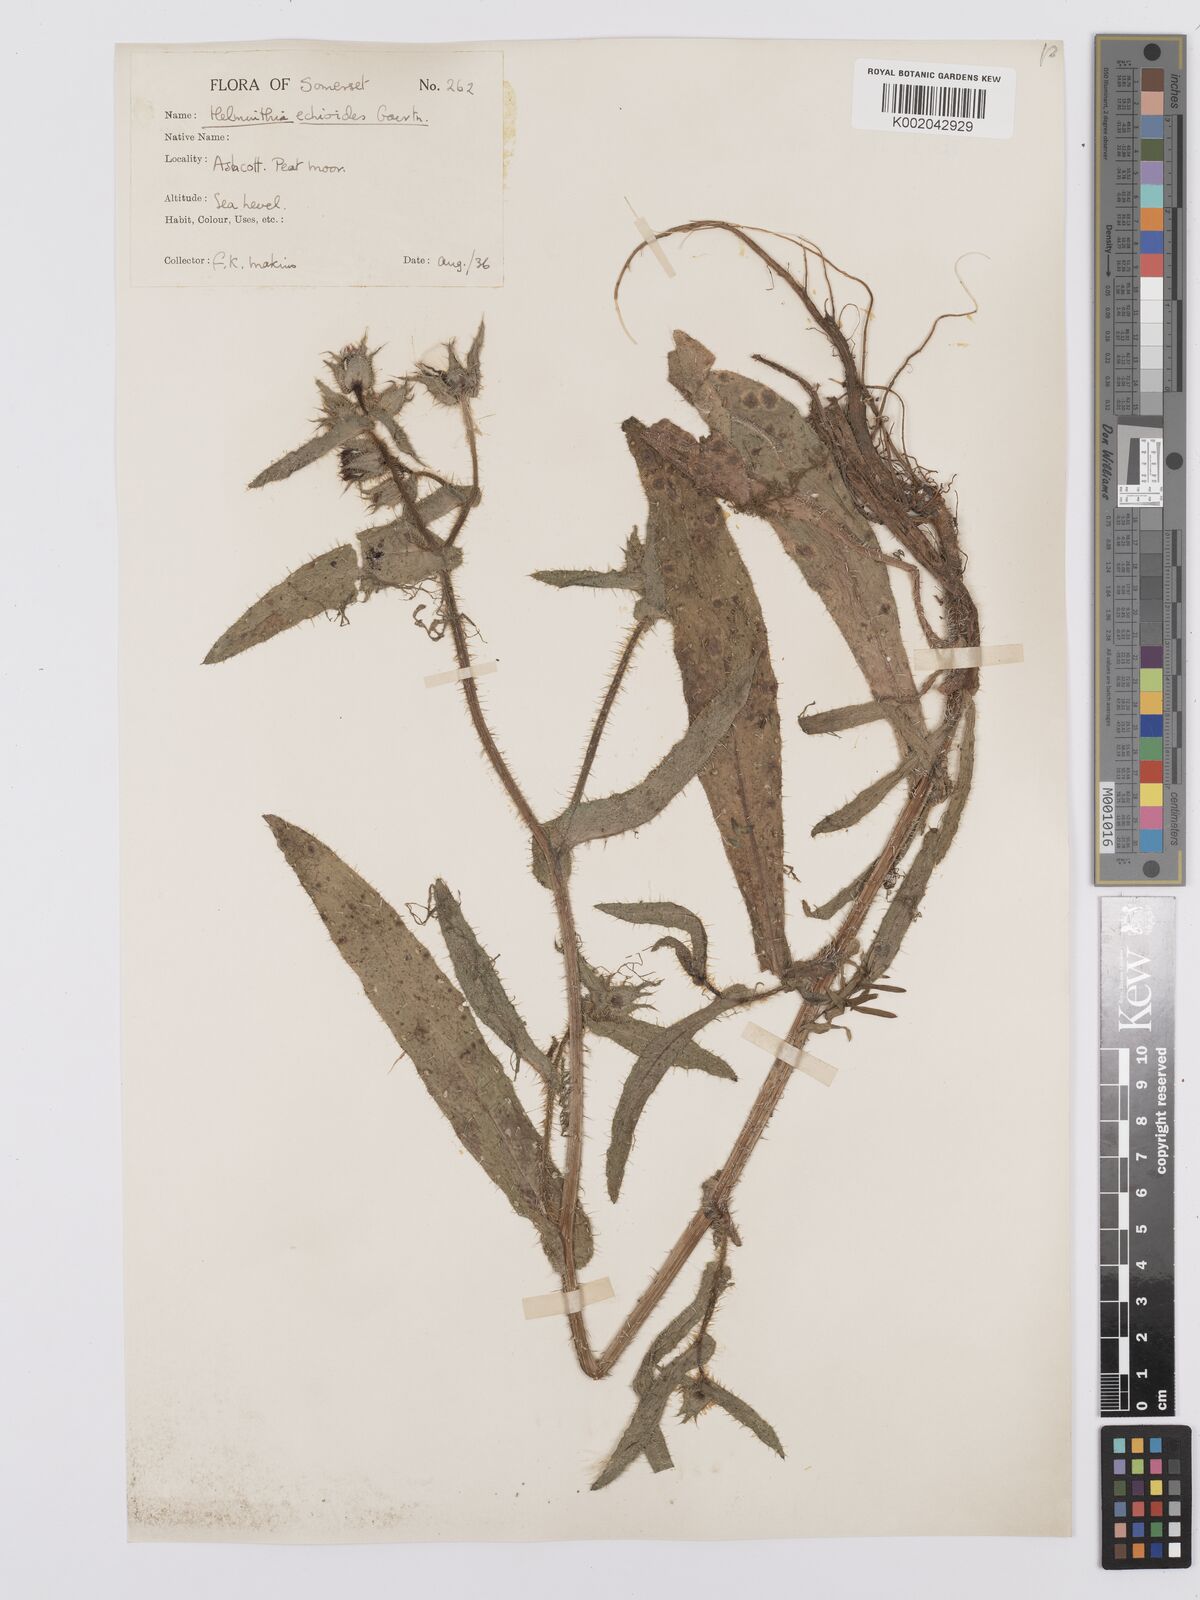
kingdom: Plantae
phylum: Tracheophyta
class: Magnoliopsida
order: Asterales
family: Asteraceae
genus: Helminthotheca
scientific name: Helminthotheca echioides
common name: Ox-tongue
